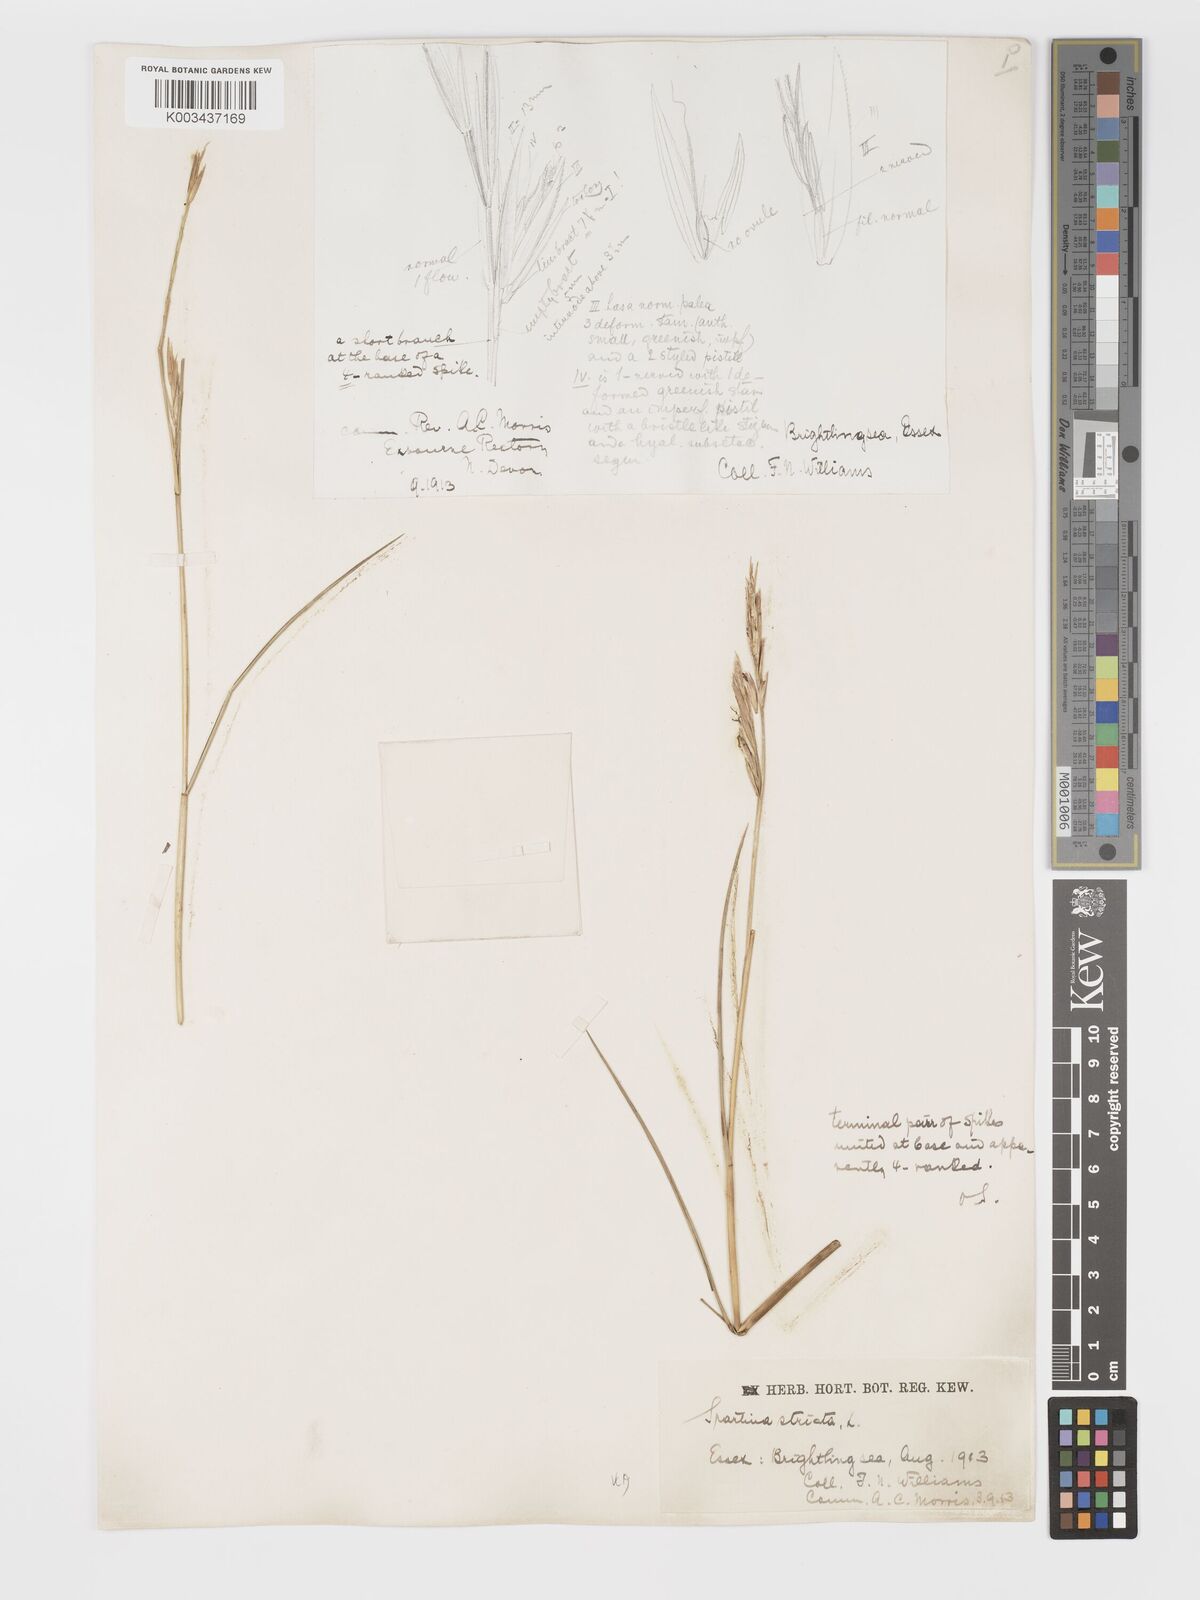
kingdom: Plantae
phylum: Tracheophyta
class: Liliopsida
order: Poales
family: Poaceae
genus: Sporobolus
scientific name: Sporobolus maritimus
